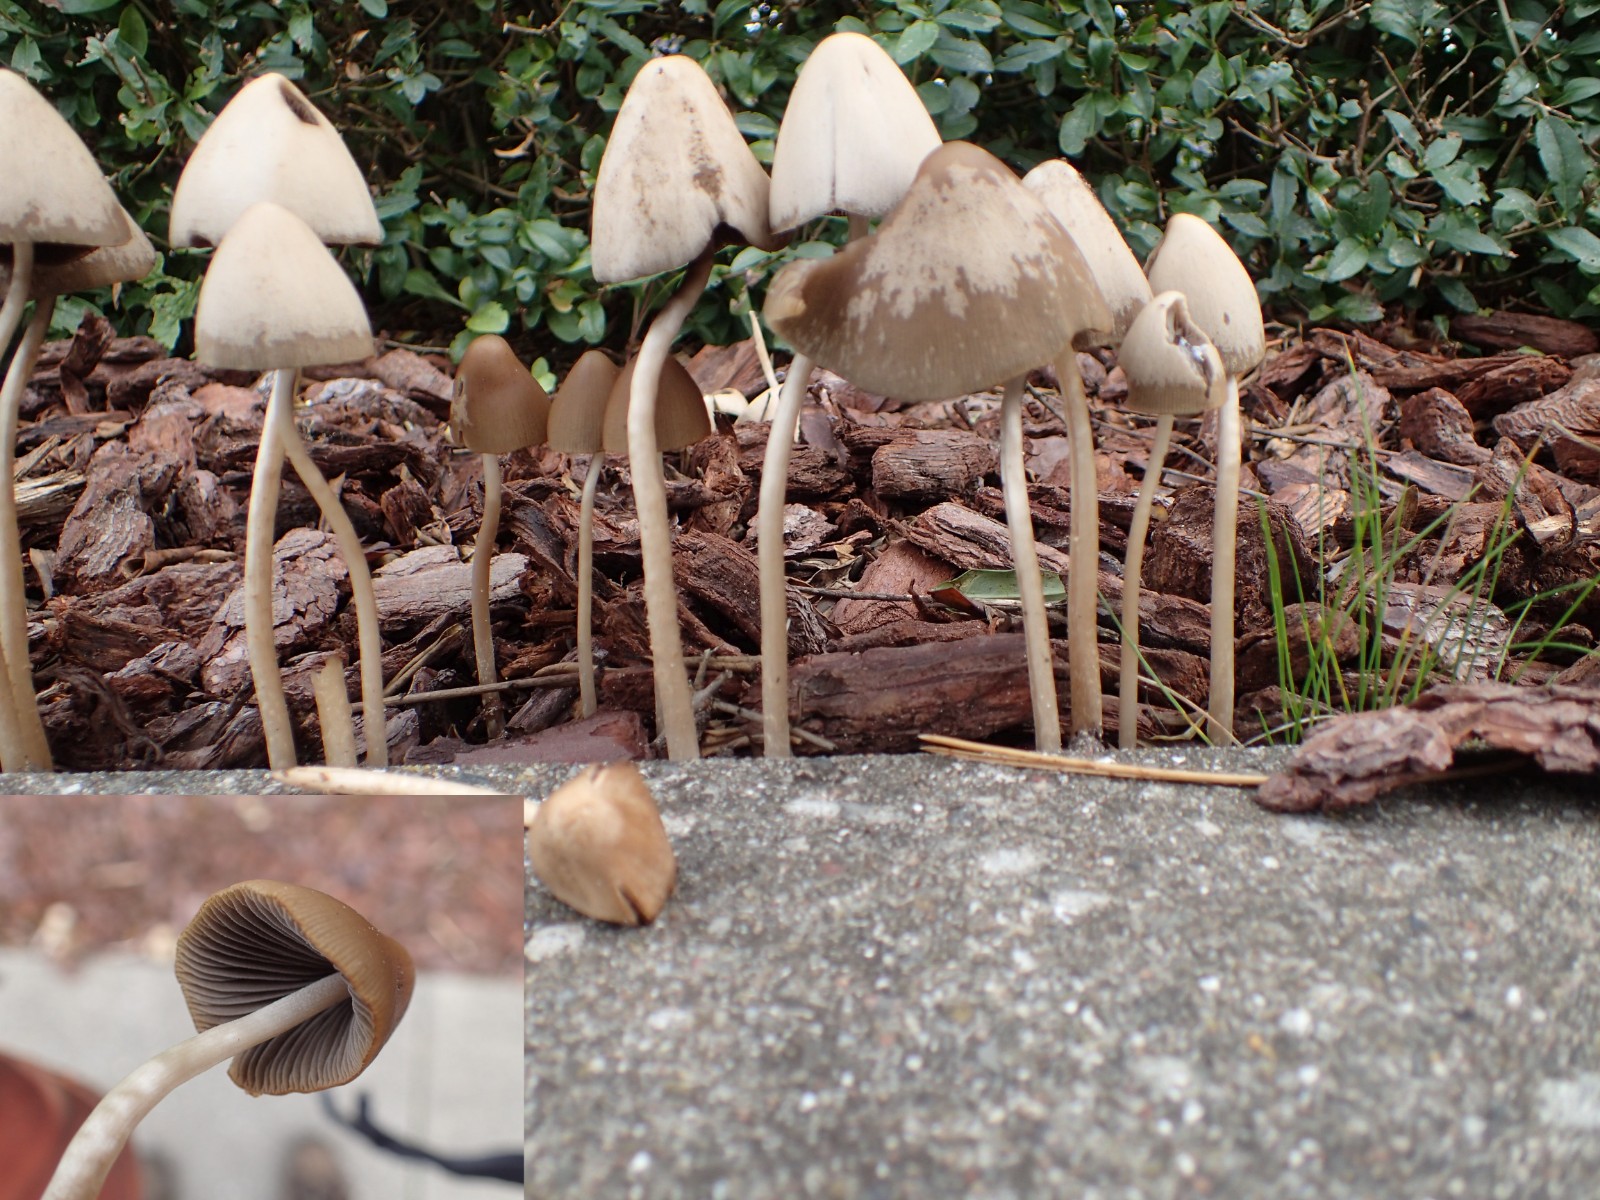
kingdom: Fungi
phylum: Basidiomycota
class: Agaricomycetes
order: Agaricales
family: Psathyrellaceae
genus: Parasola
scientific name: Parasola conopilea
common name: kegle-hjulhat
